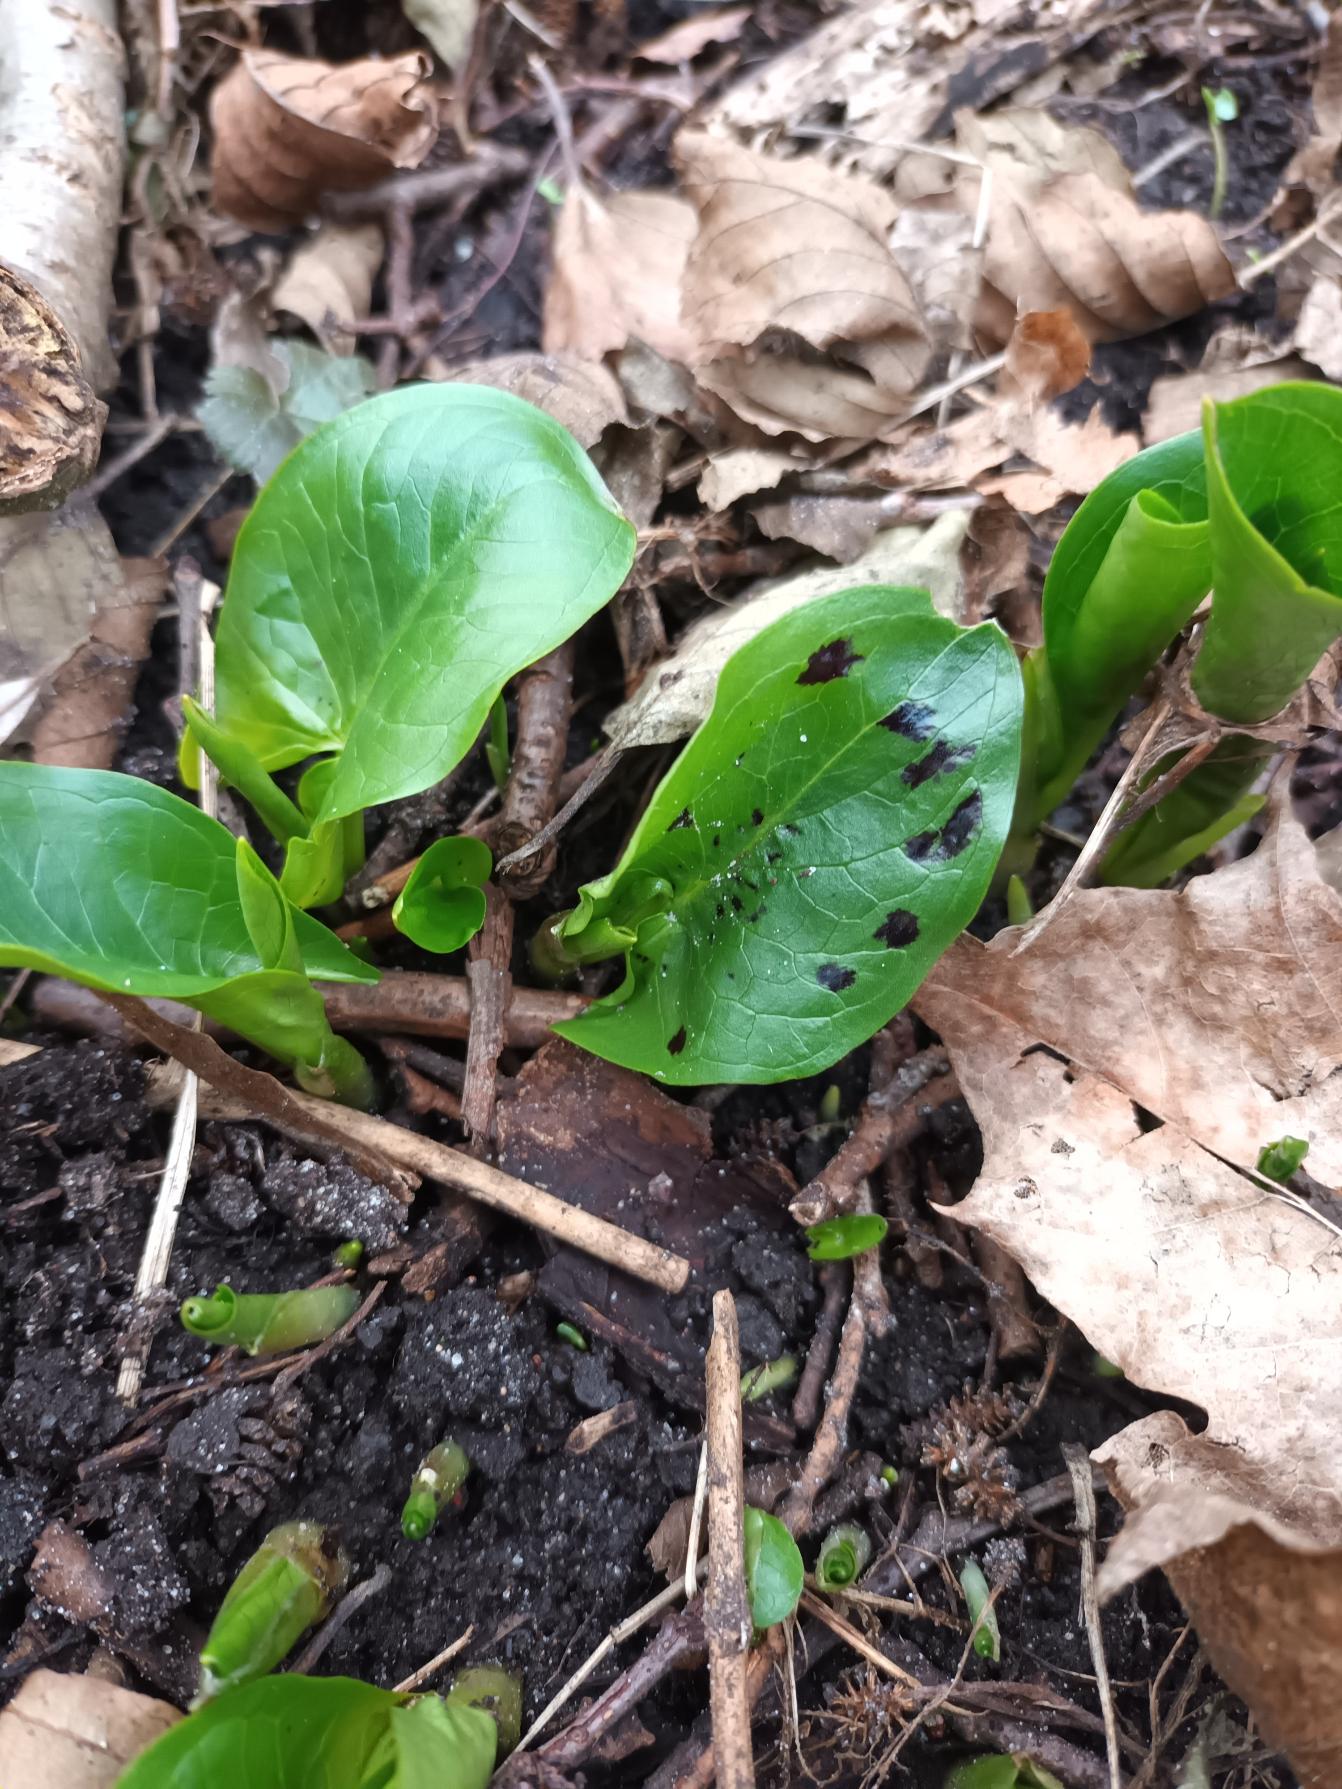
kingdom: Plantae
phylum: Tracheophyta
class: Liliopsida
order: Alismatales
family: Araceae
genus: Arum
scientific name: Arum maculatum
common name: Plettet arum
